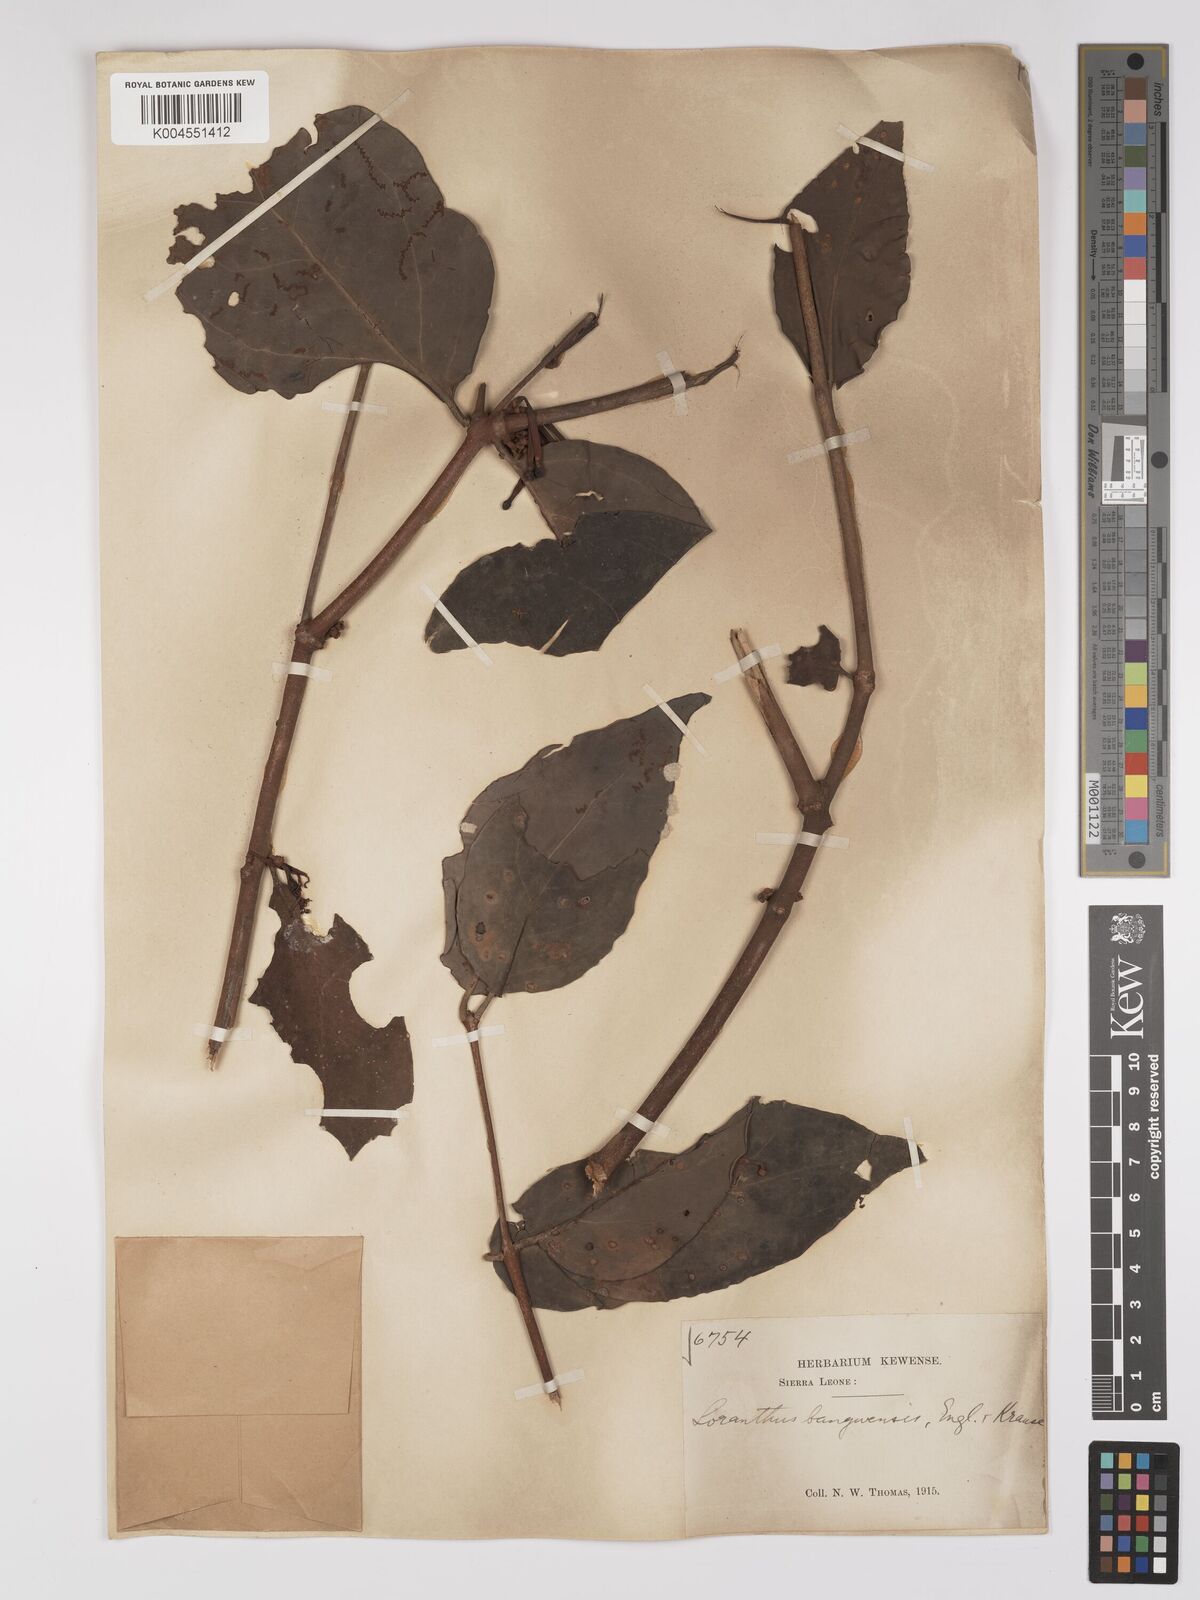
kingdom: Plantae
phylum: Tracheophyta
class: Magnoliopsida
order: Santalales
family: Loranthaceae
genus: Tapinanthus
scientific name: Tapinanthus bangwensis
